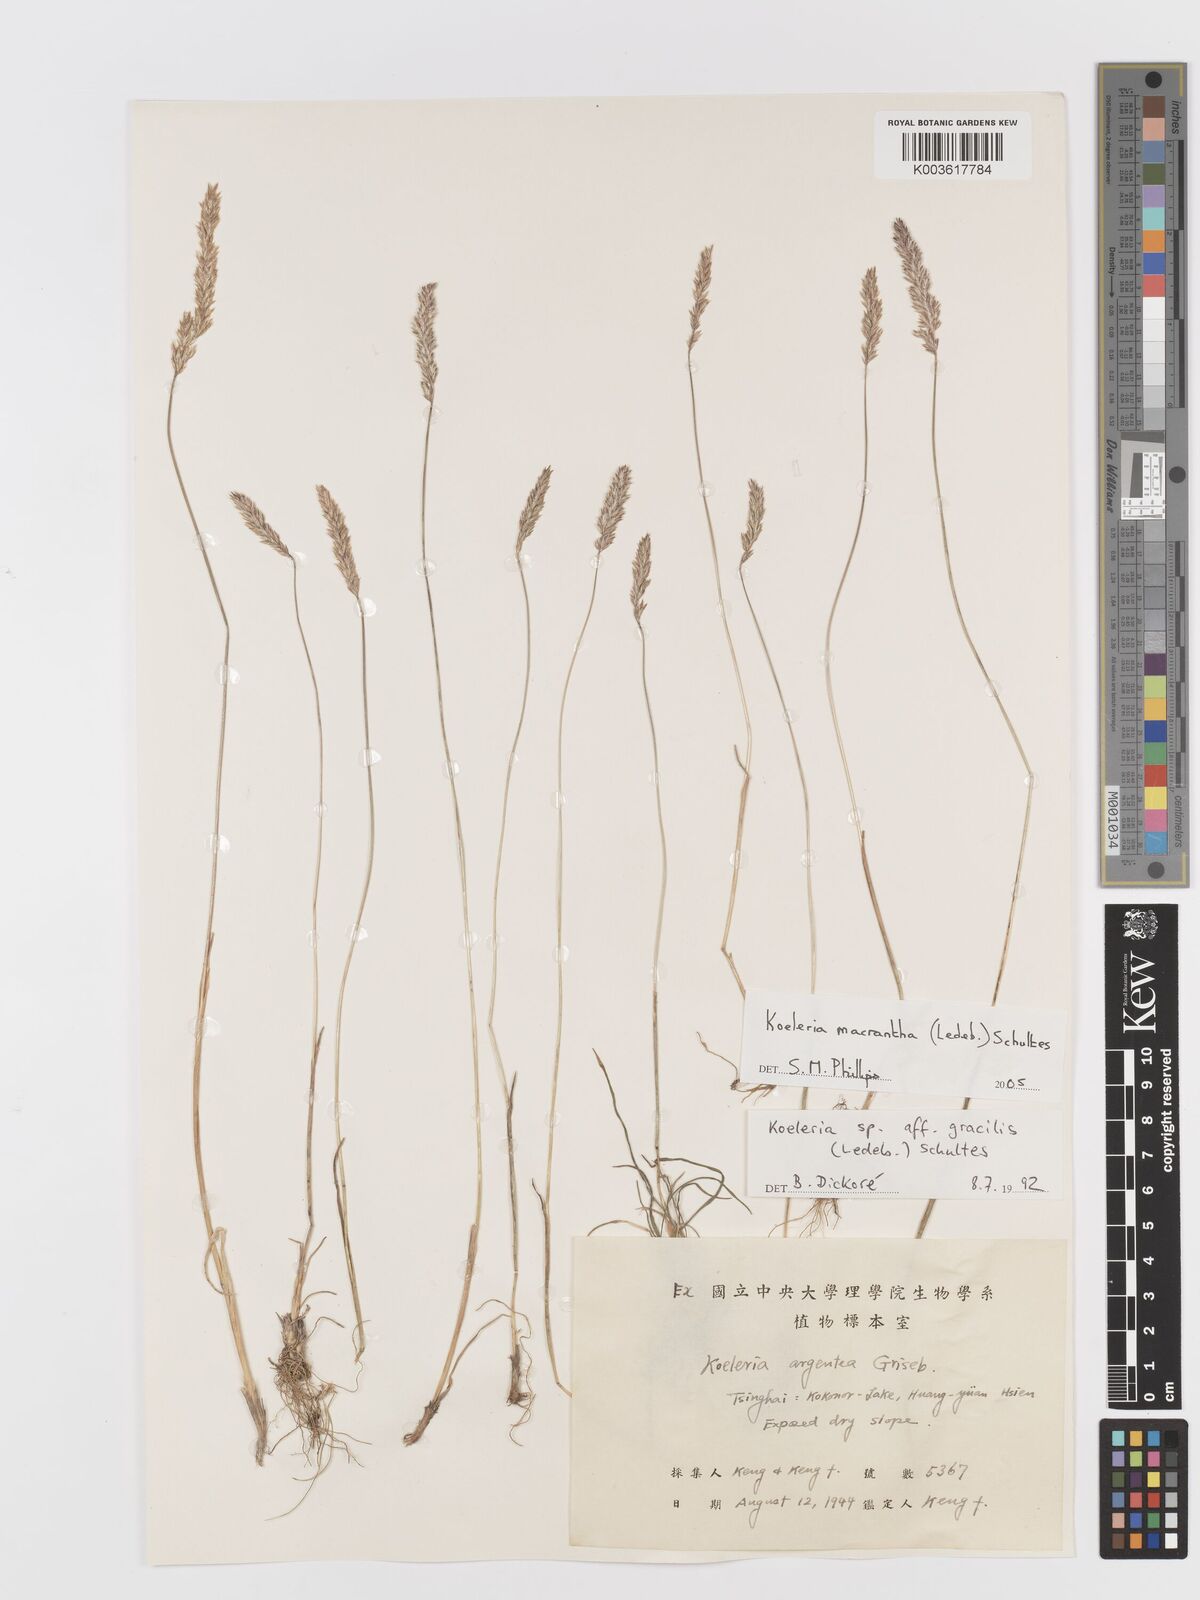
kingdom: Plantae
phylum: Tracheophyta
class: Liliopsida
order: Poales
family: Poaceae
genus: Koeleria
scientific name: Koeleria macrantha
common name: Crested hair-grass
